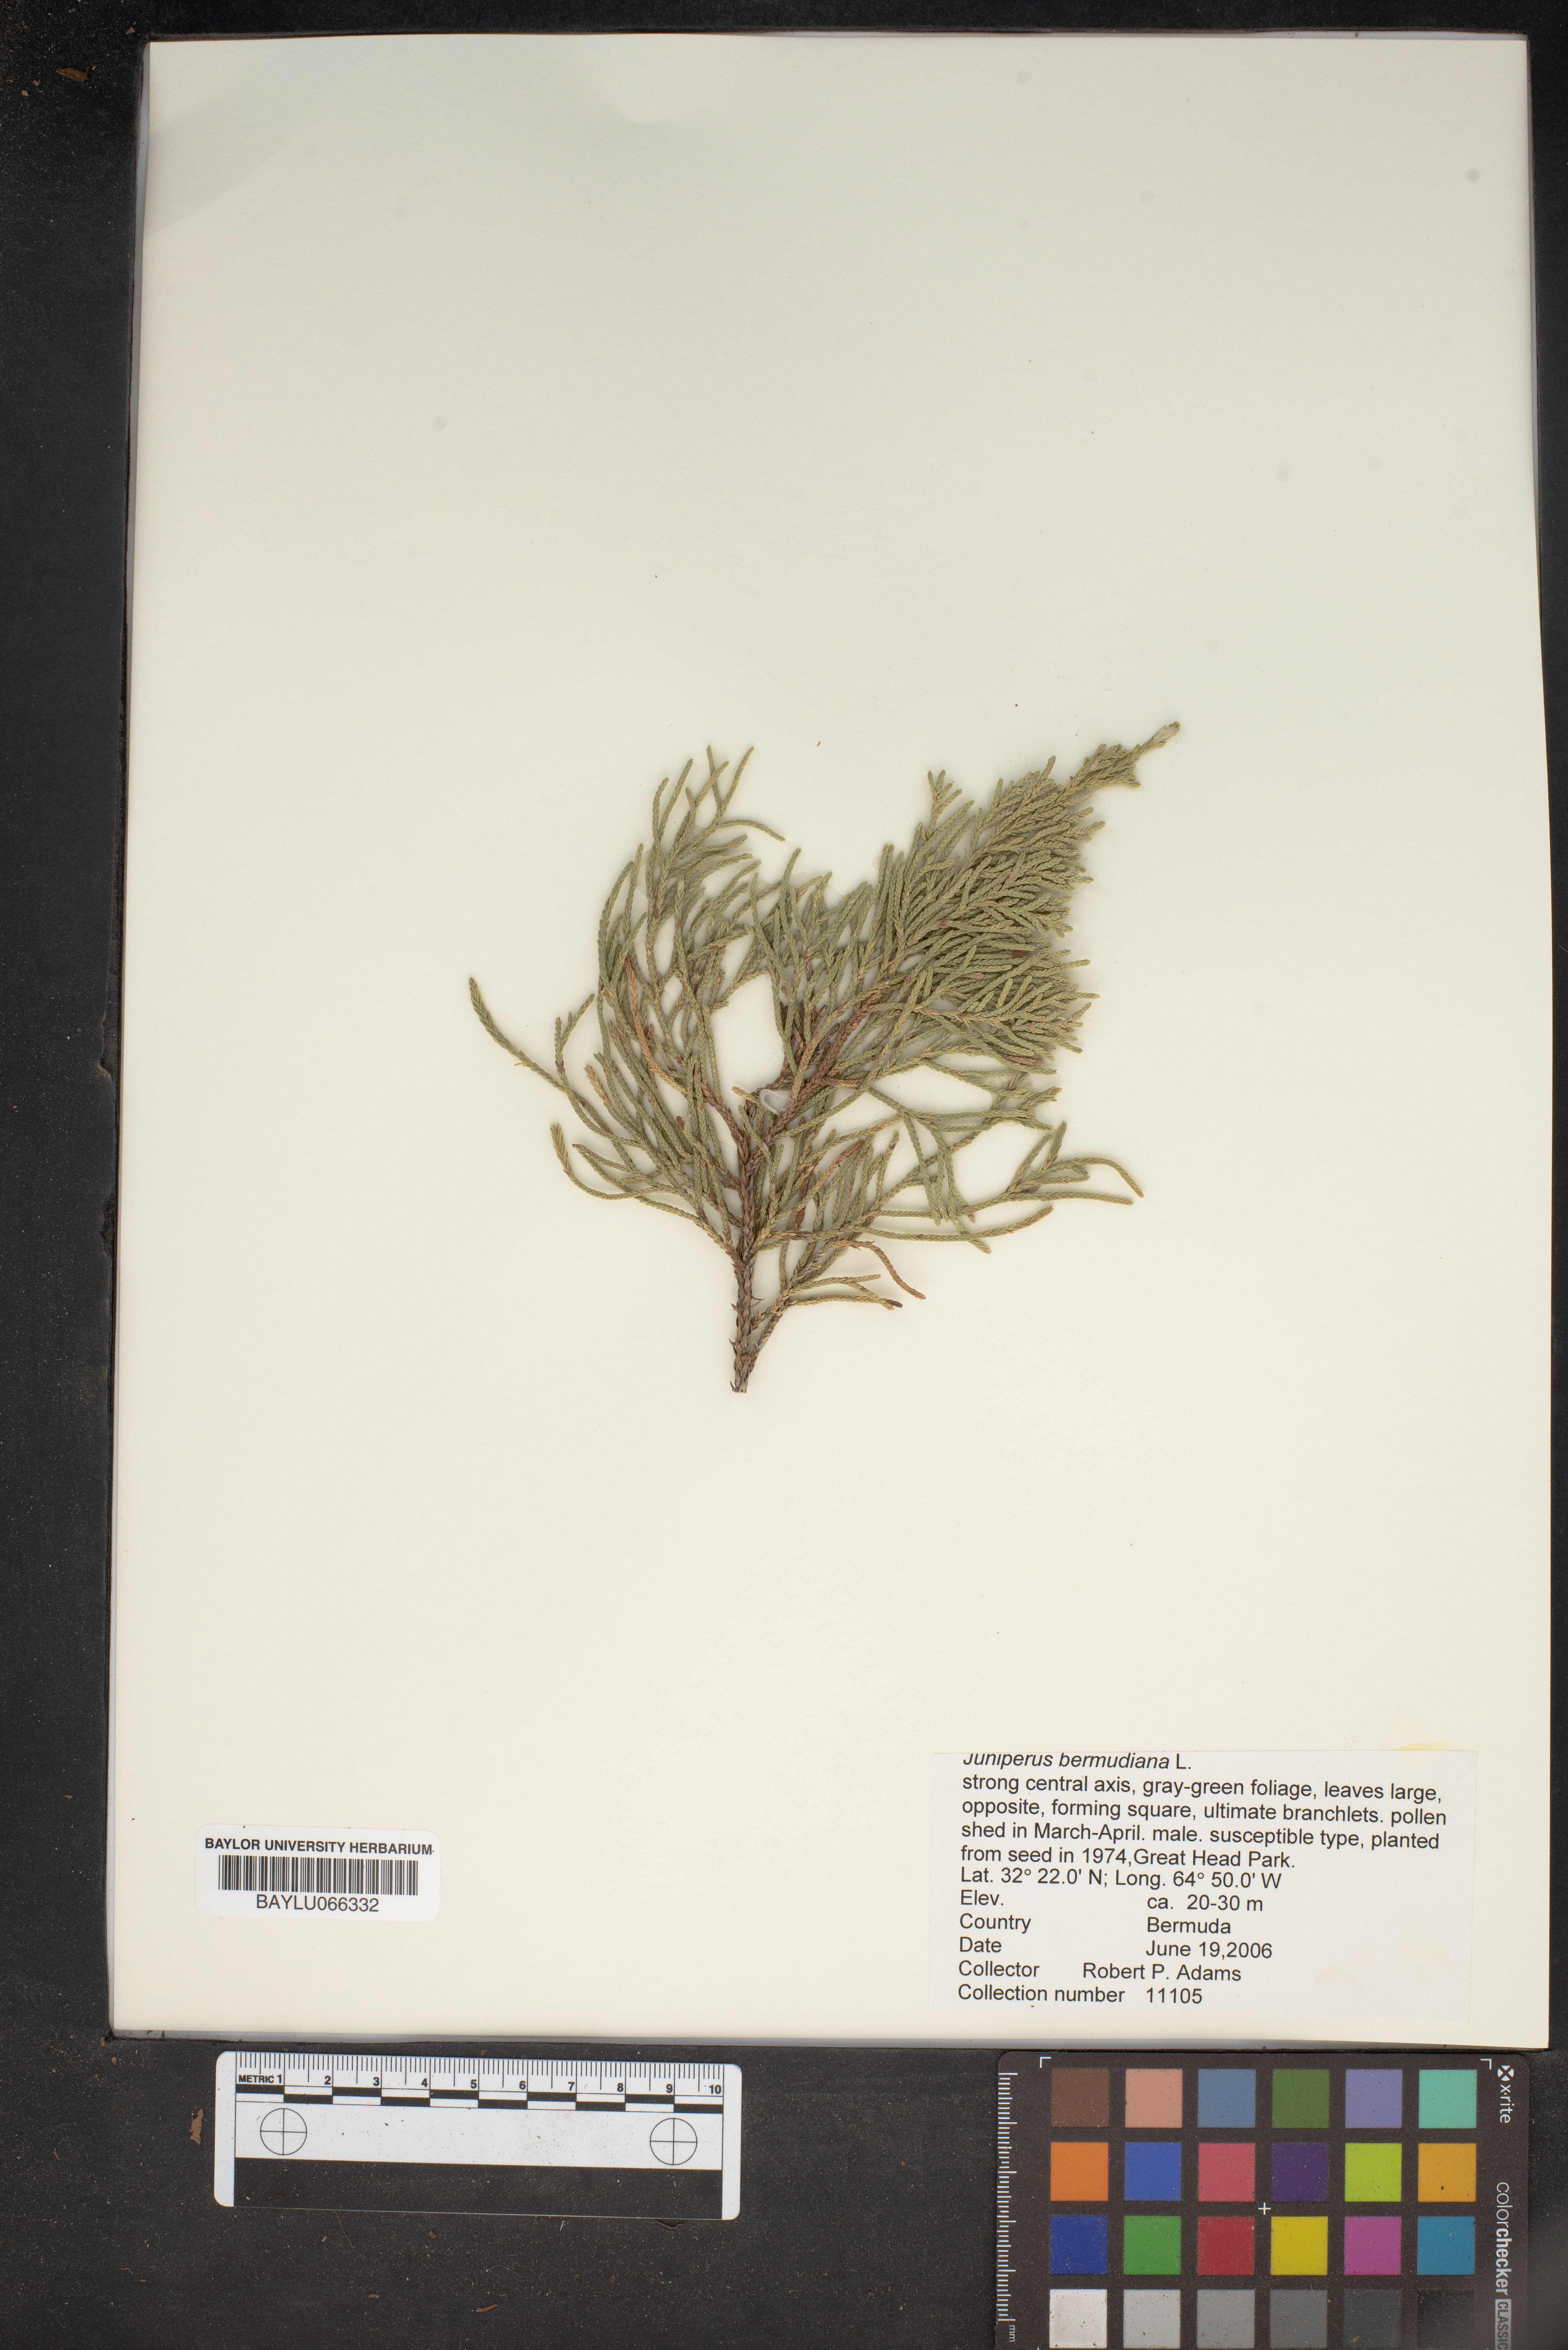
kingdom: Plantae
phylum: Tracheophyta
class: Pinopsida
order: Pinales
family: Cupressaceae
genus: Juniperus
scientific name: Juniperus bermudiana
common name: Bermuda juniper
